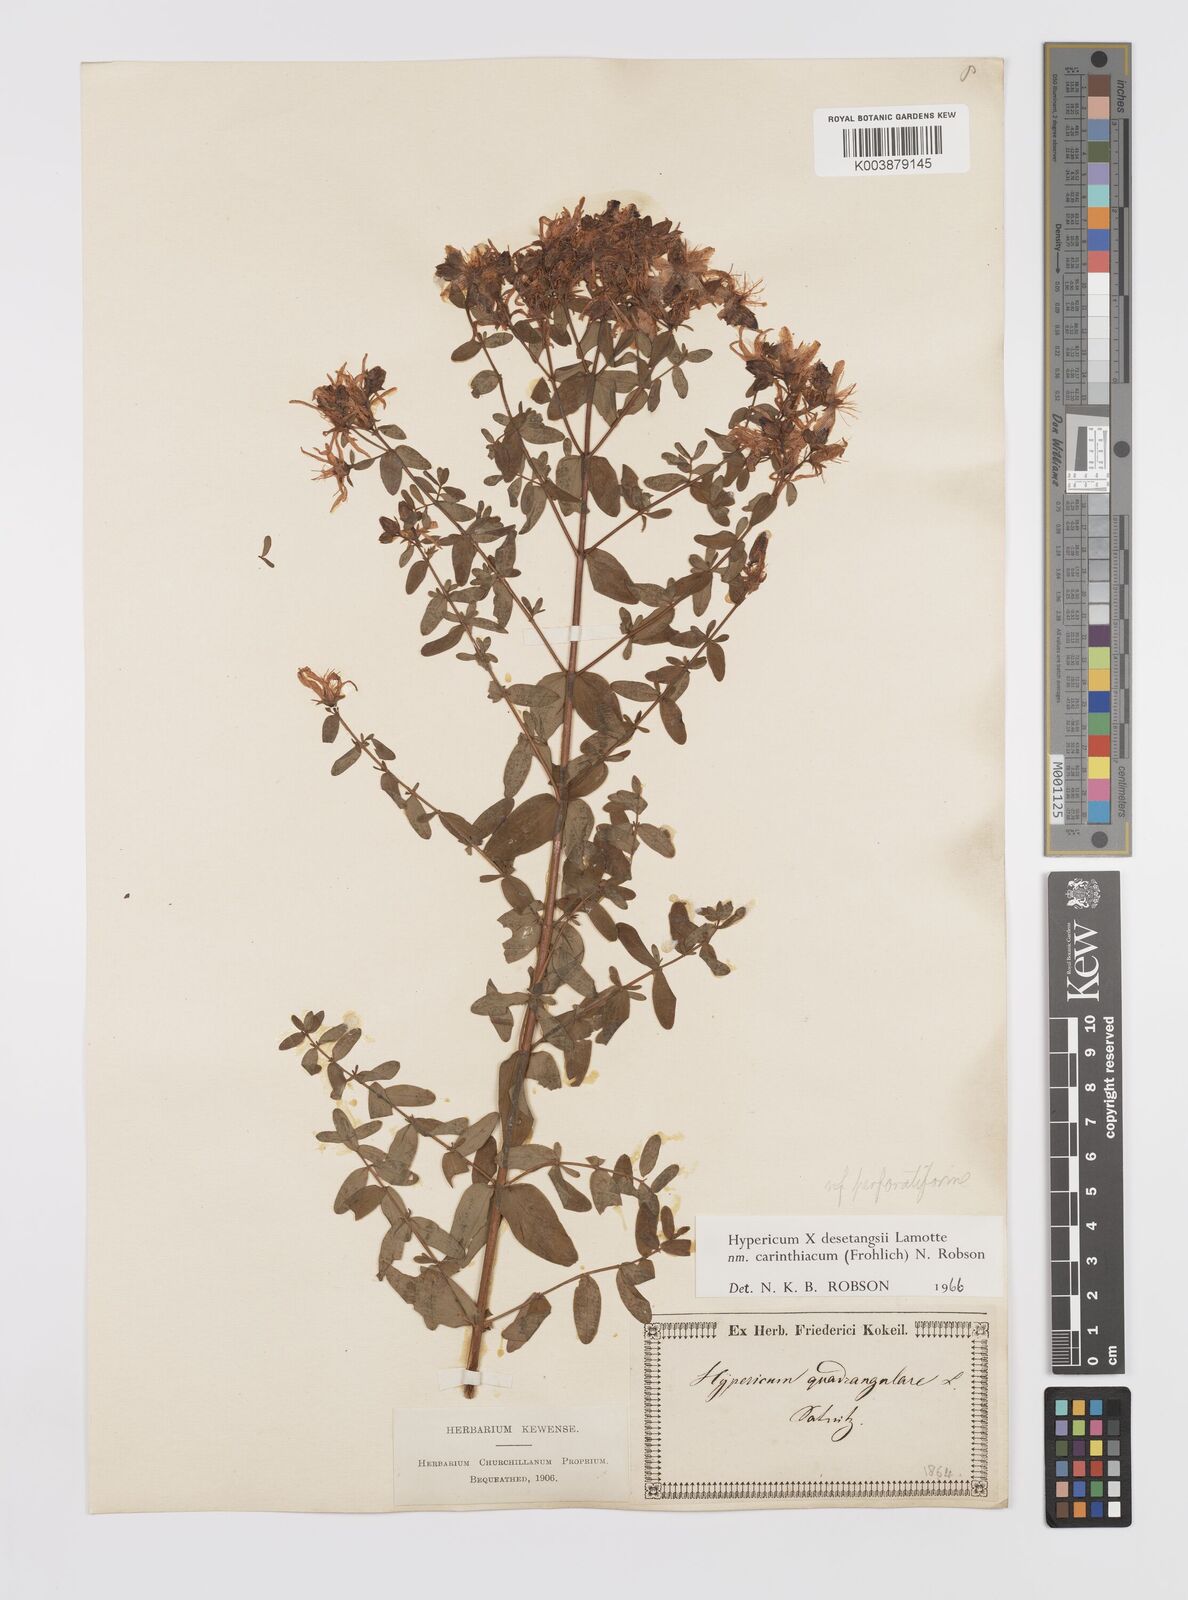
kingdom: Plantae
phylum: Tracheophyta
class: Magnoliopsida
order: Malpighiales
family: Hypericaceae
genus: Hypericum
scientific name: Hypericum maculatum
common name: Imperforate st. john's-wort
